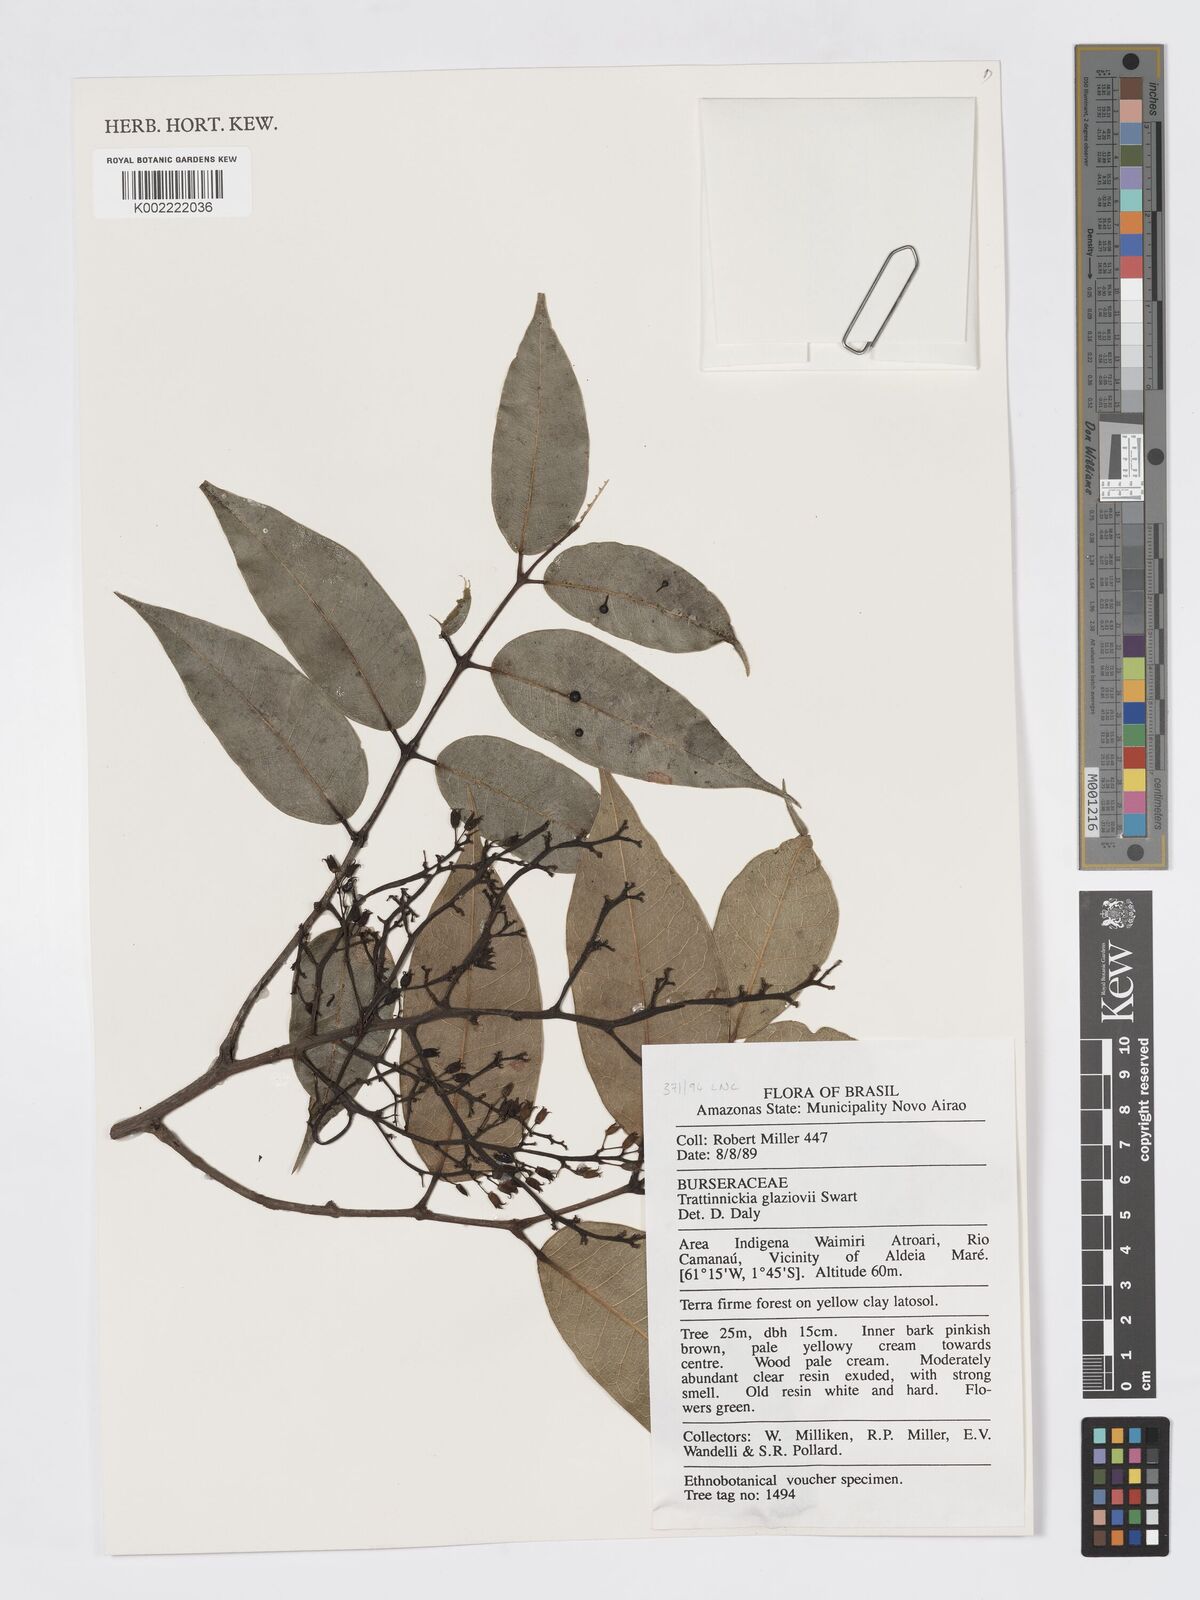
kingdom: Plantae
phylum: Tracheophyta
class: Magnoliopsida
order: Sapindales
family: Burseraceae
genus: Trattinnickia
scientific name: Trattinnickia glaziovii
